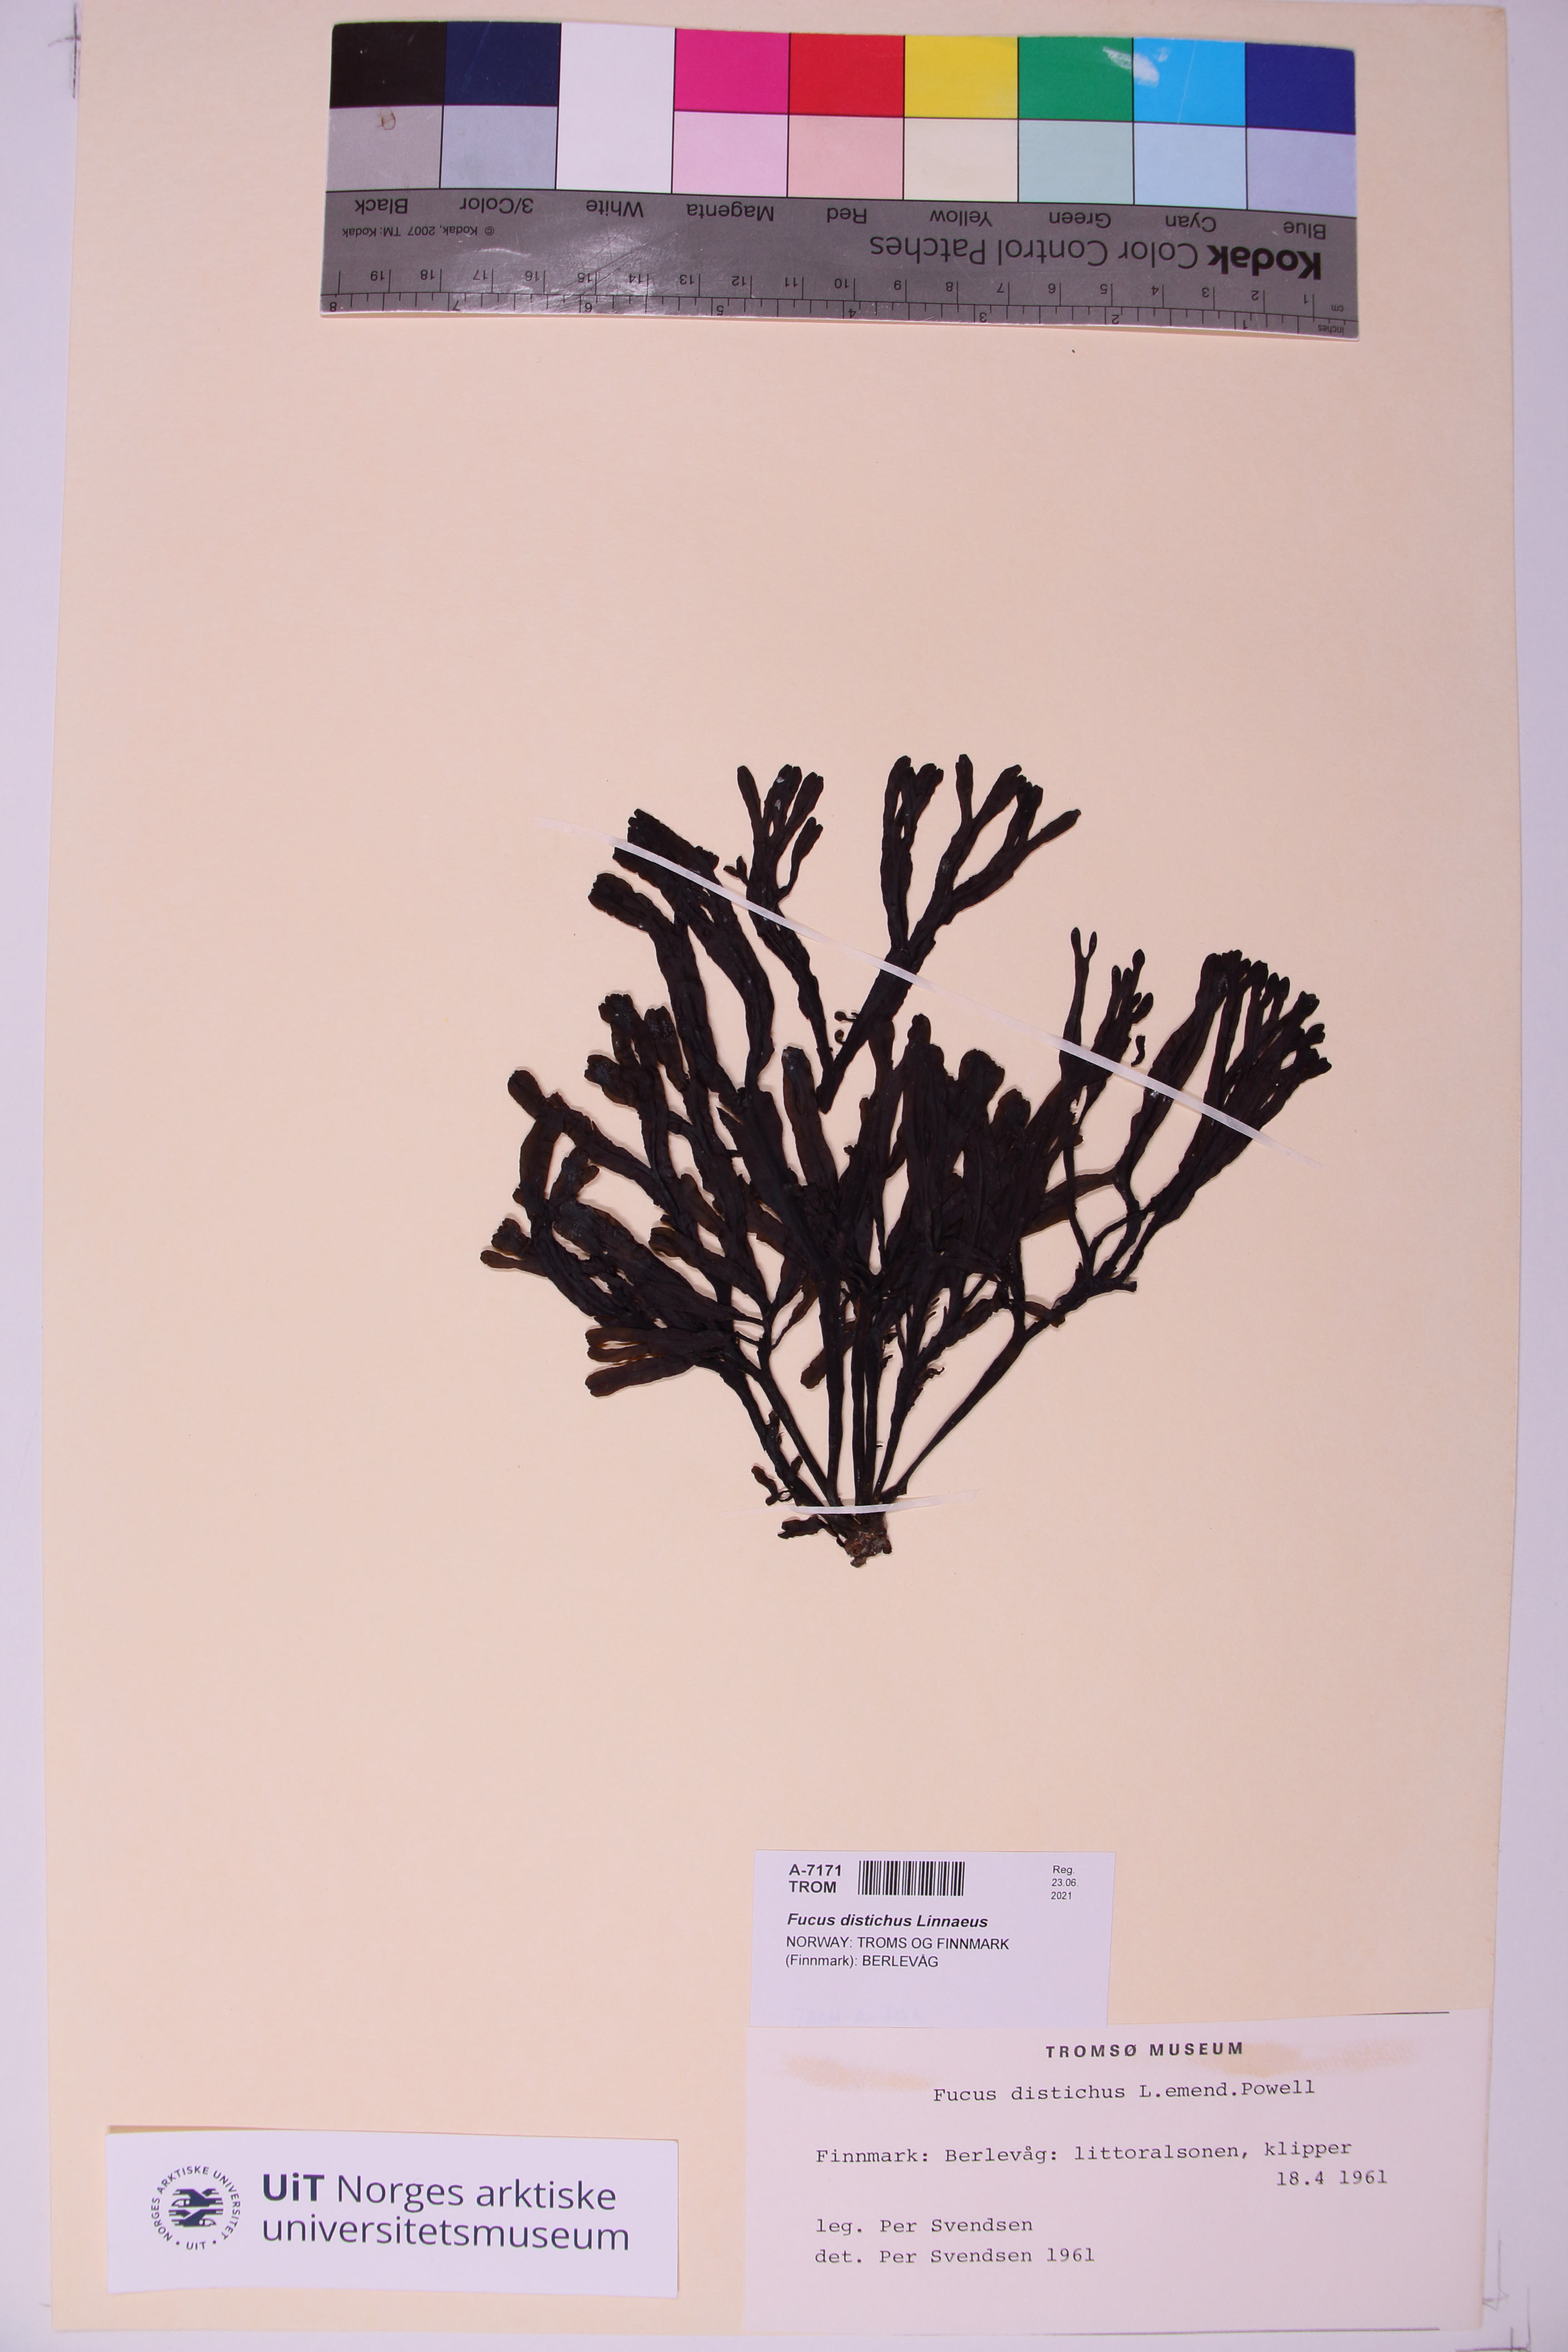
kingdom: Chromista
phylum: Ochrophyta
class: Phaeophyceae
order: Fucales
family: Fucaceae
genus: Fucus
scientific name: Fucus distichus
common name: Rockweed
